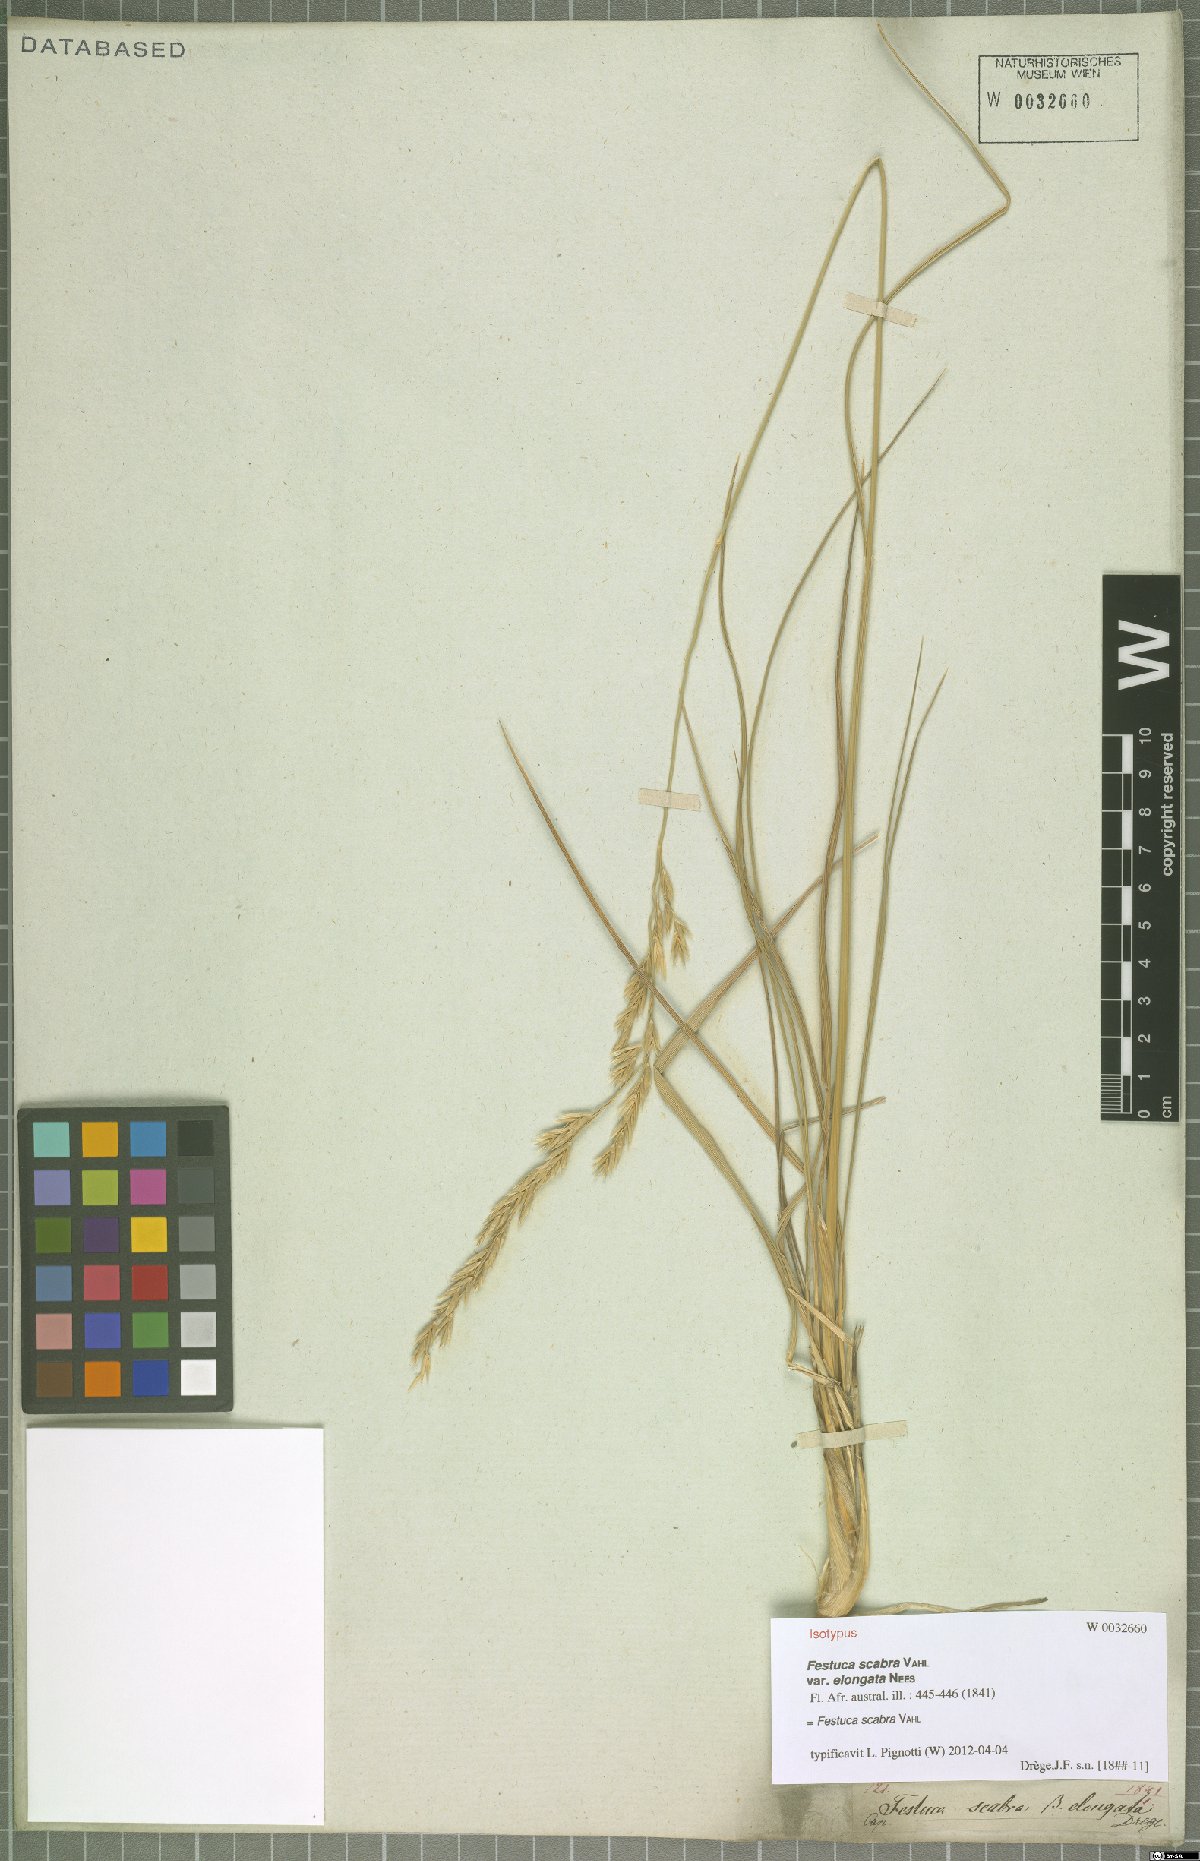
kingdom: Plantae
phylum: Tracheophyta
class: Liliopsida
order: Poales
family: Poaceae
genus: Festuca
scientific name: Festuca scabra
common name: Munnik fescue
